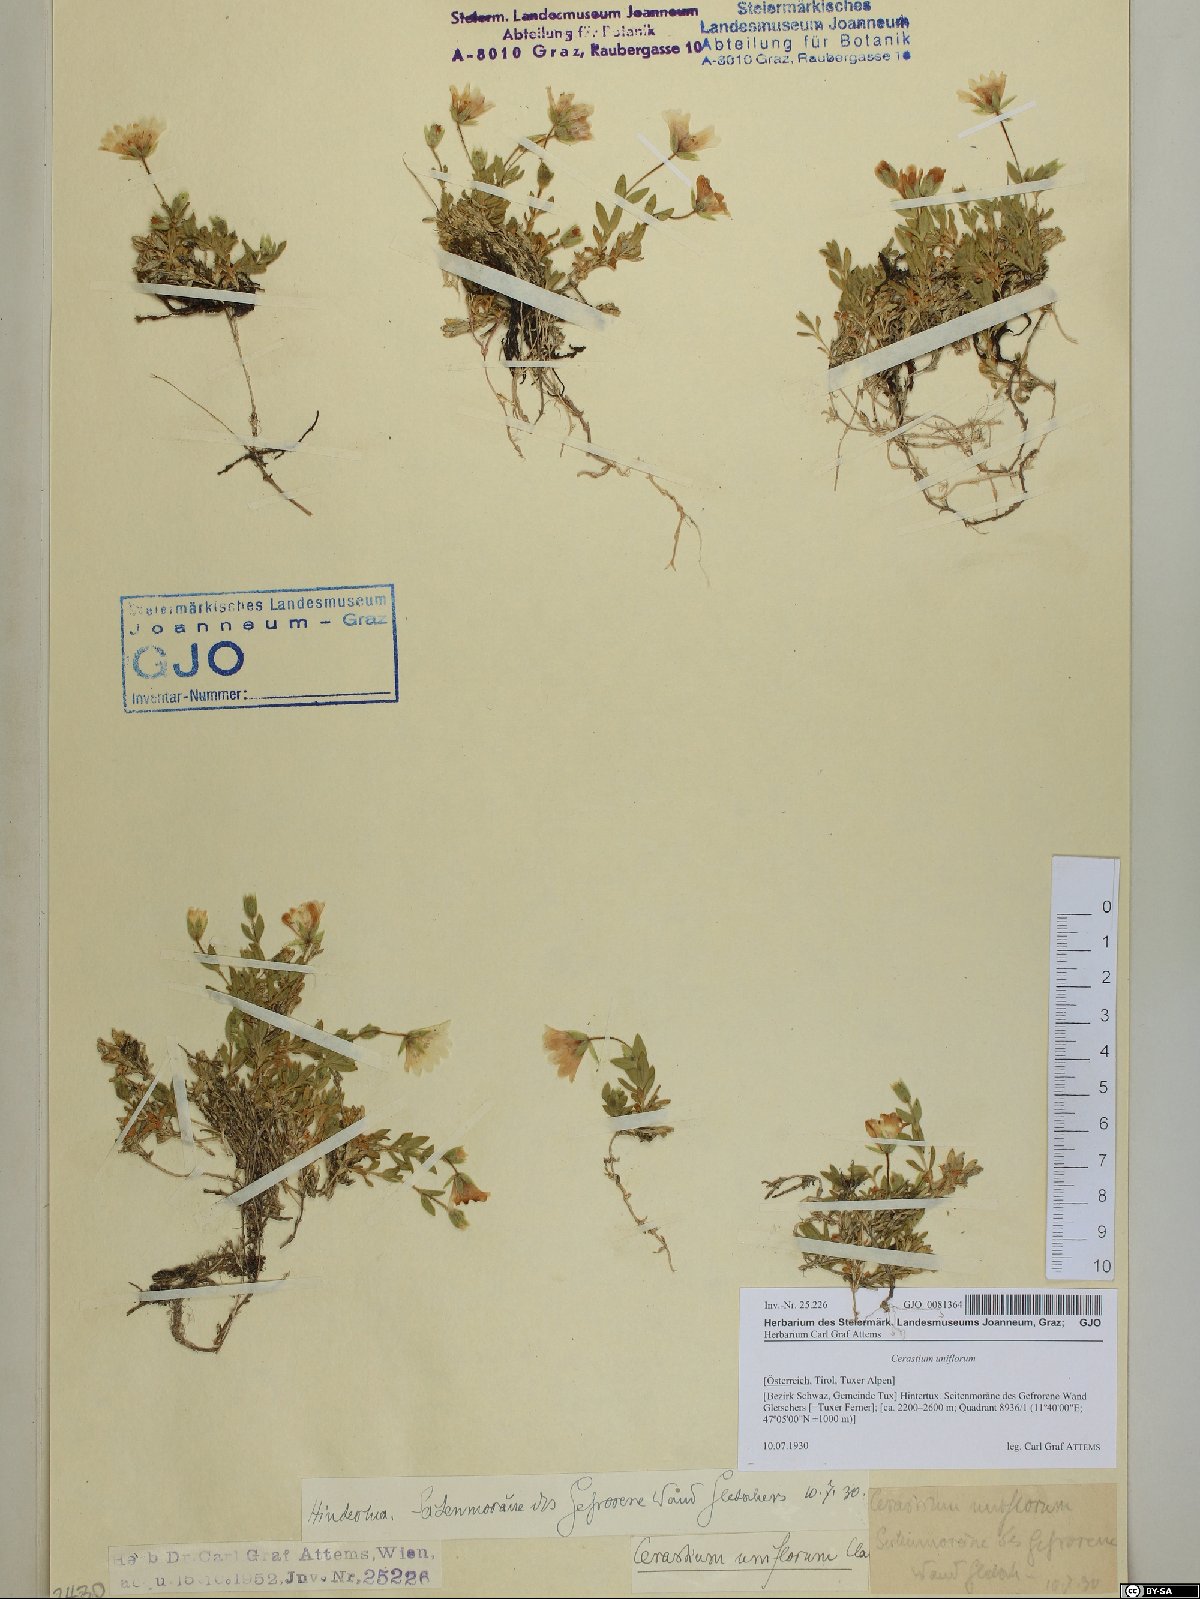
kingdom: Plantae
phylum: Tracheophyta
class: Magnoliopsida
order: Caryophyllales
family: Caryophyllaceae
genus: Cerastium
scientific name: Cerastium uniflorum
